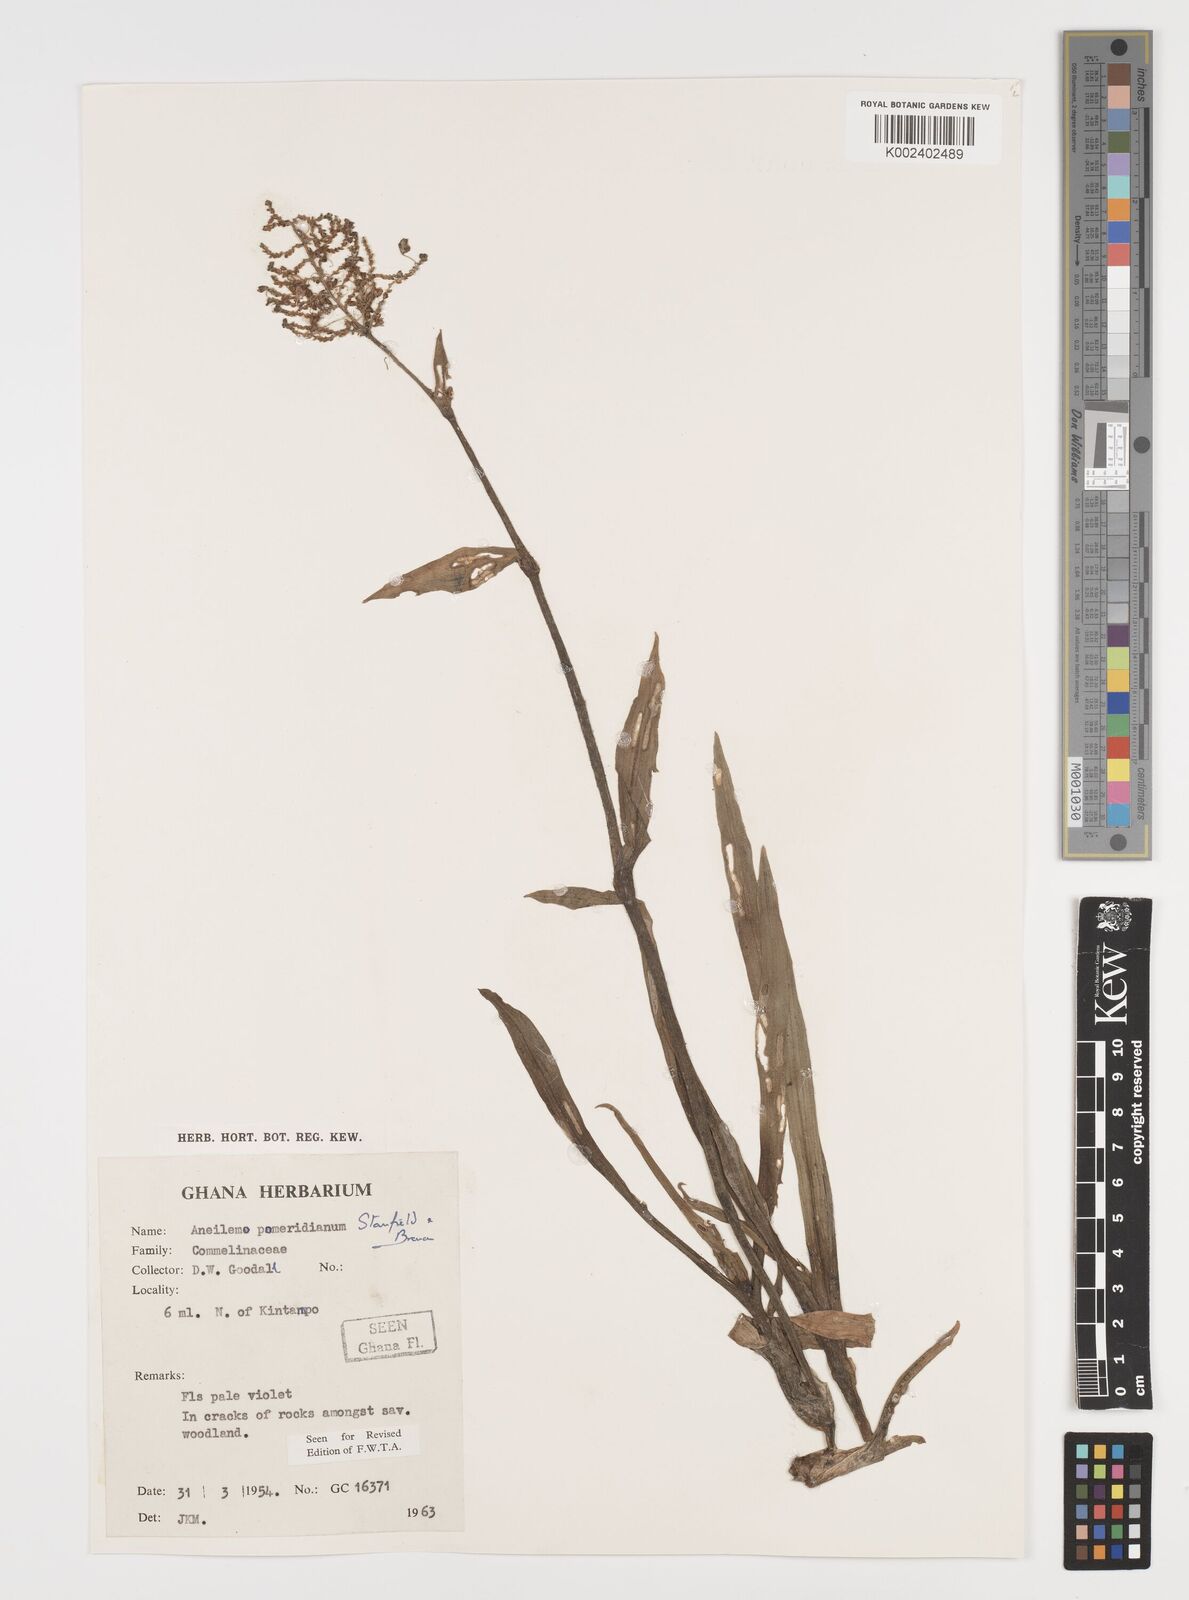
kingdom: Plantae
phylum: Tracheophyta
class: Liliopsida
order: Commelinales
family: Commelinaceae
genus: Aneilema
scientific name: Aneilema pomeridianum
